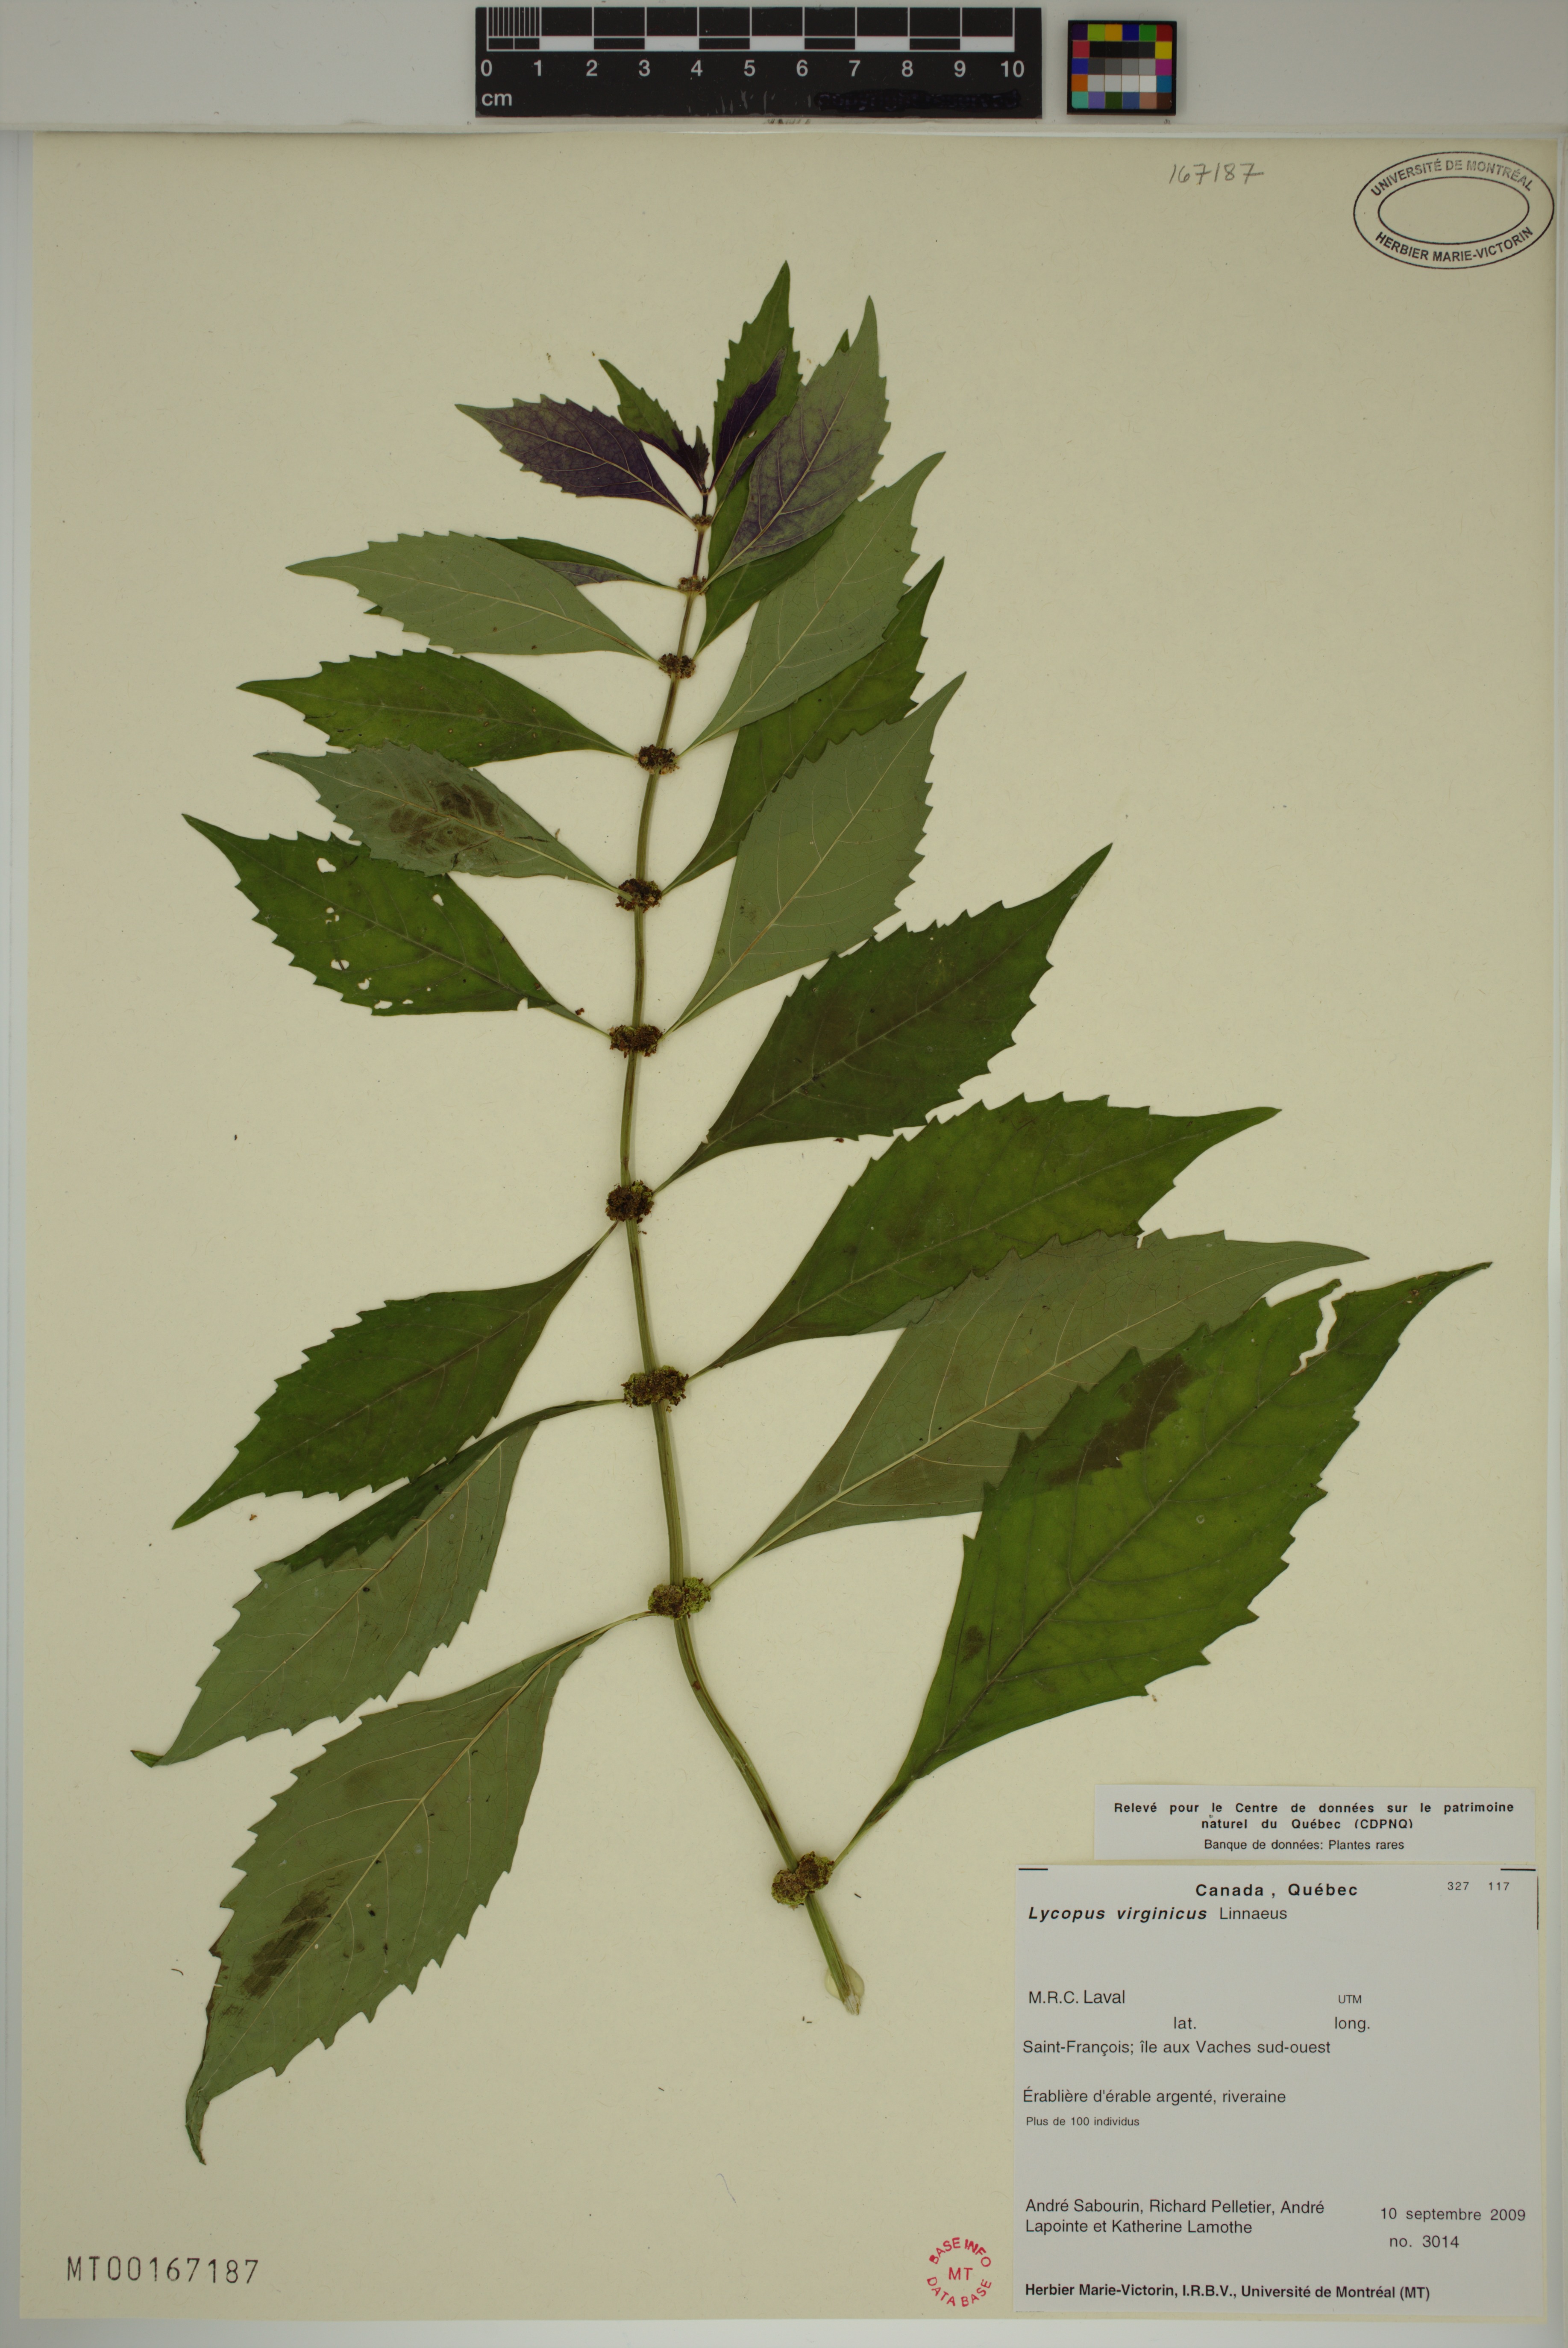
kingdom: Plantae
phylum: Tracheophyta
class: Magnoliopsida
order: Lamiales
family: Lamiaceae
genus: Lycopus
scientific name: Lycopus virginicus
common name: Bugleweed
